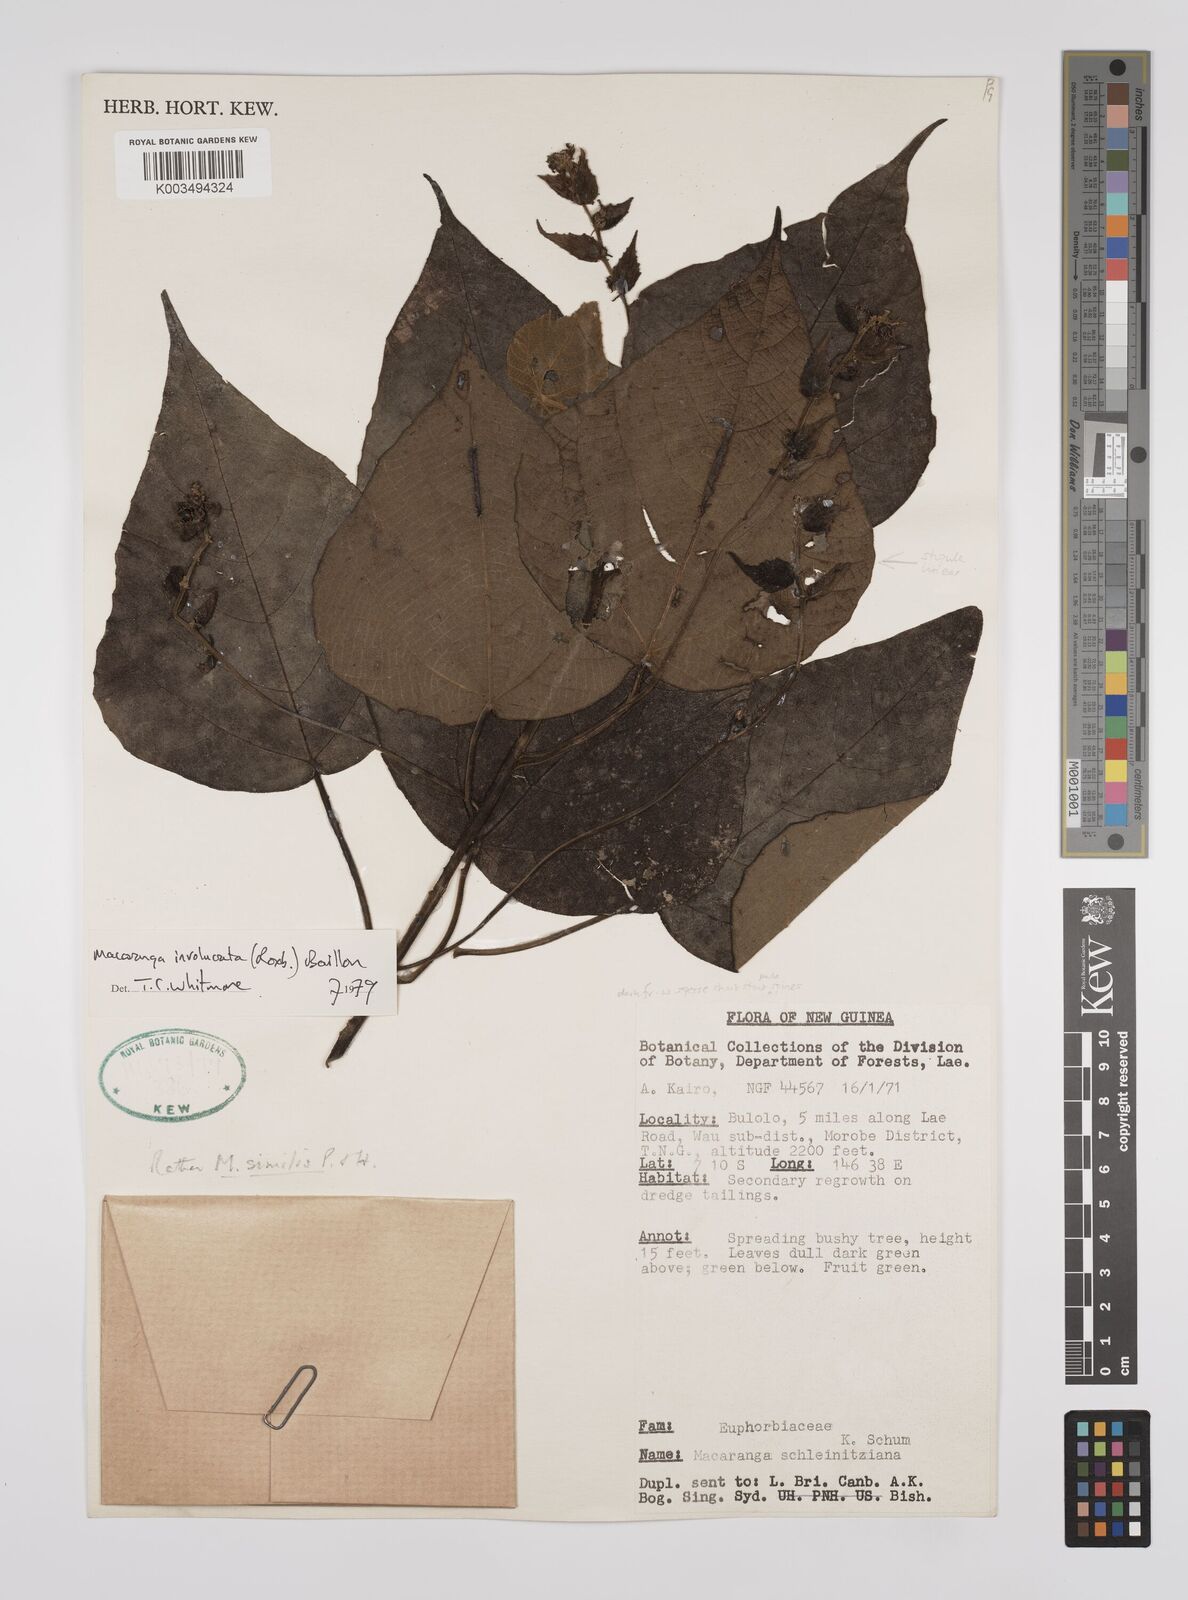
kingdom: Plantae
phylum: Tracheophyta
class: Magnoliopsida
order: Malpighiales
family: Euphorbiaceae
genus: Macaranga
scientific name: Macaranga involucrata
